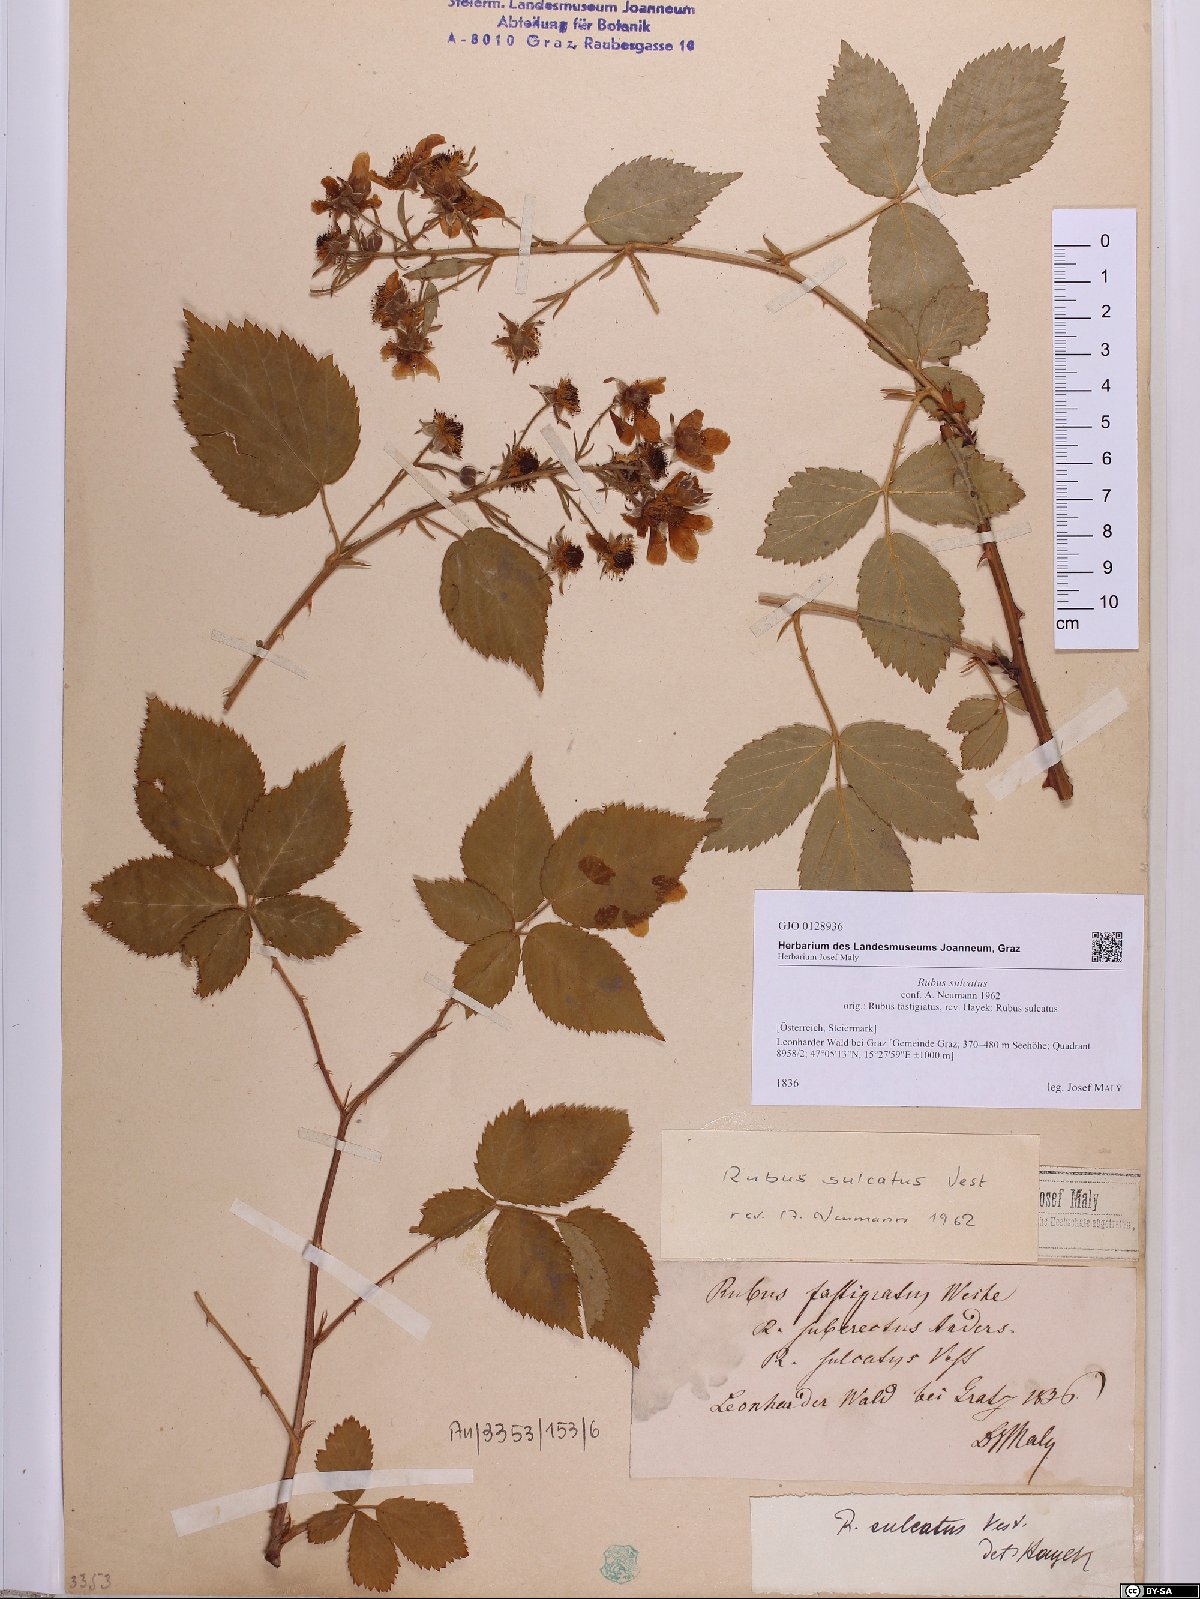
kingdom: Plantae
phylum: Tracheophyta
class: Magnoliopsida
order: Rosales
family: Rosaceae
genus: Rubus
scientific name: Rubus sulcatus
